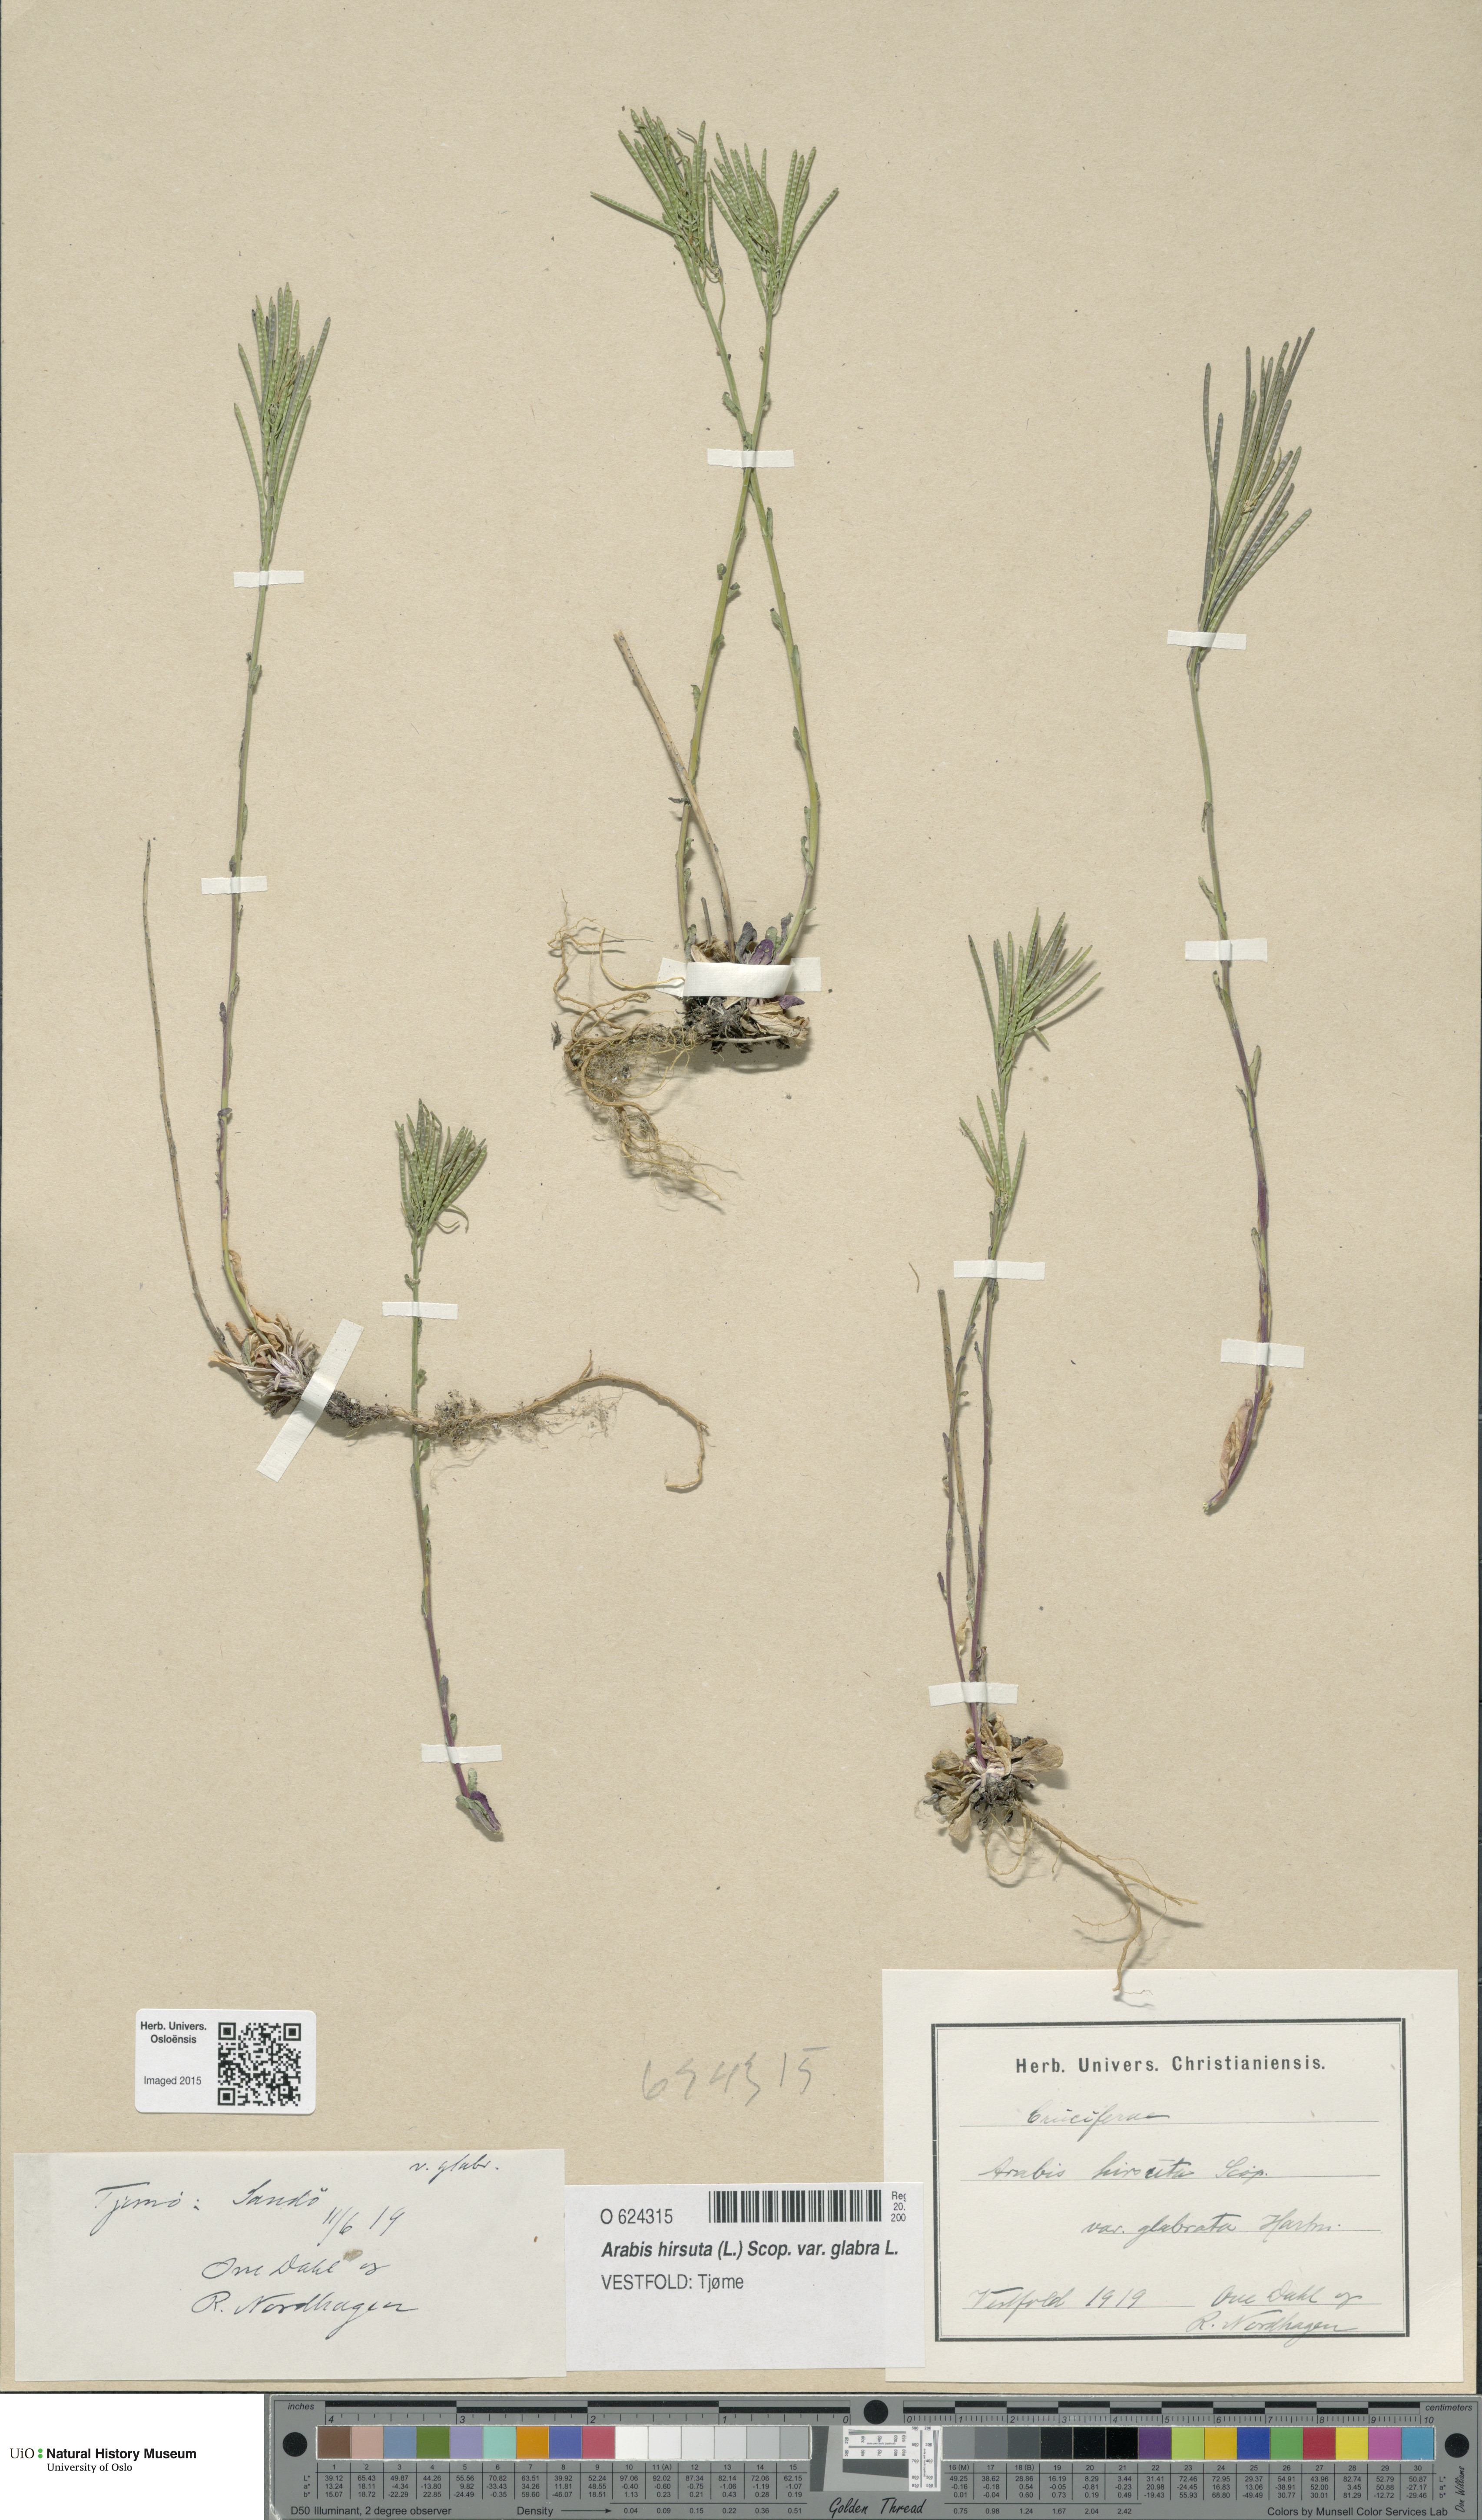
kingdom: Plantae
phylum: Tracheophyta
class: Magnoliopsida
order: Brassicales
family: Brassicaceae
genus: Arabis
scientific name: Arabis hirsuta
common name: Hairy rock-cress
